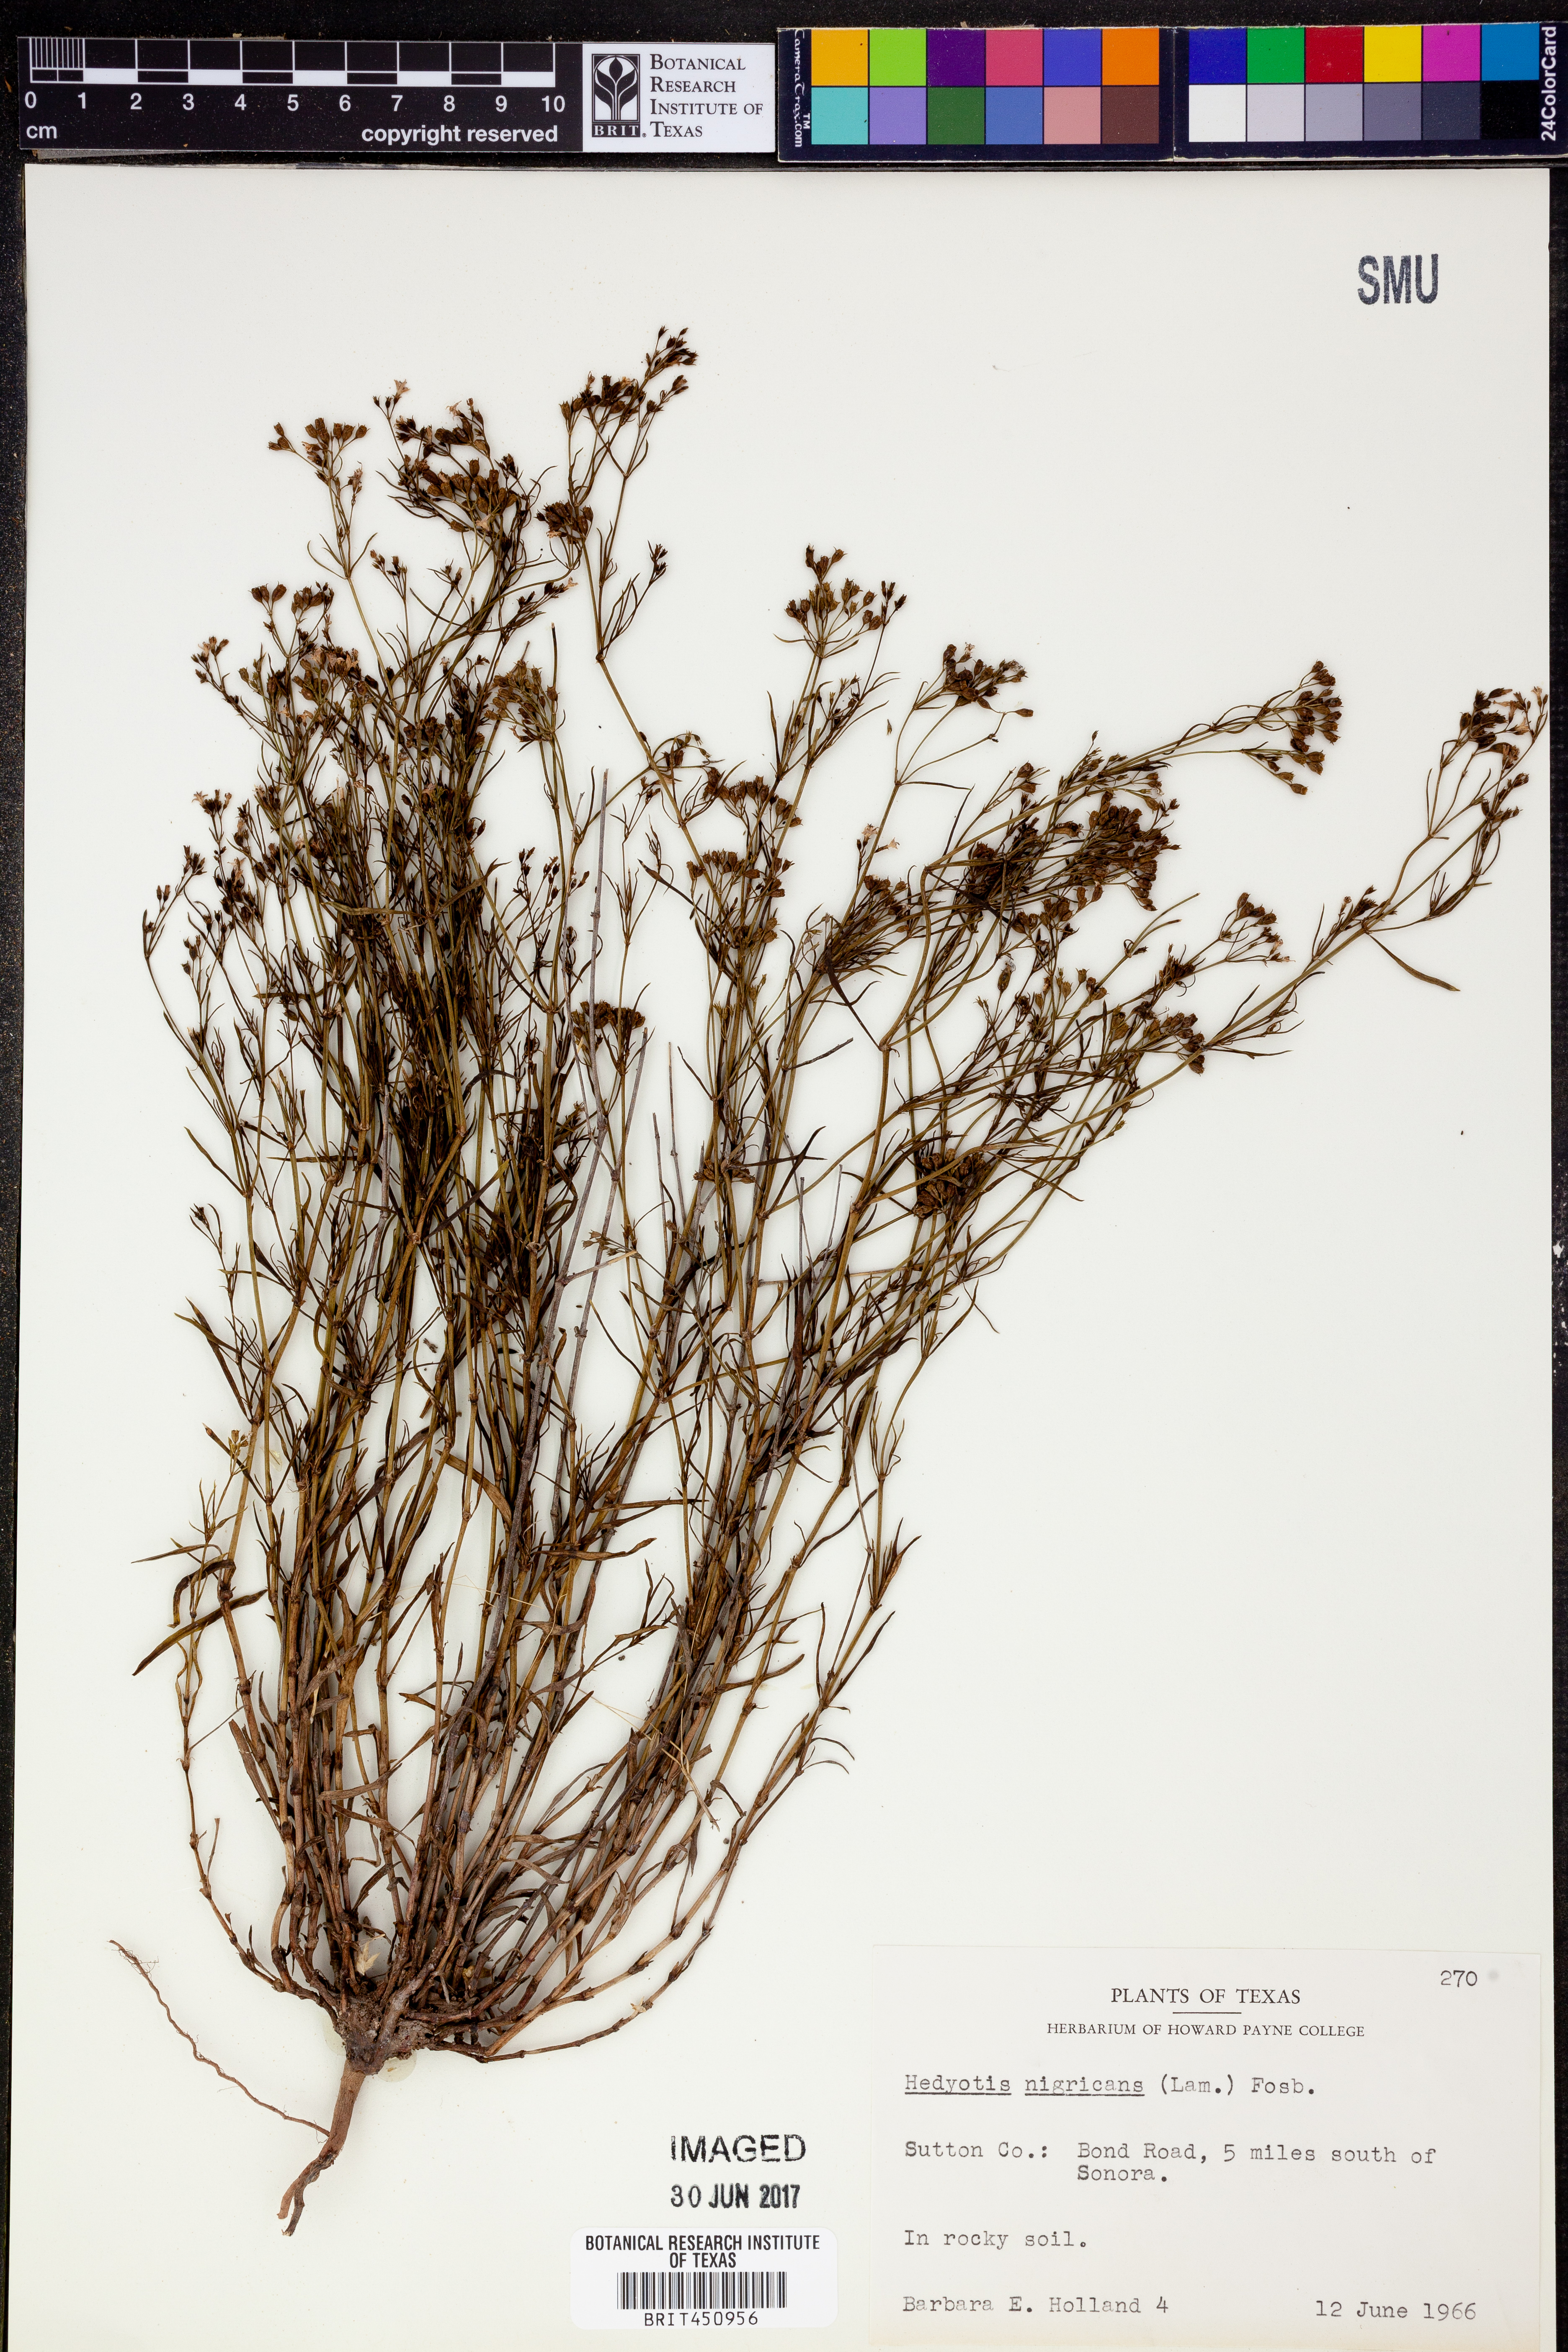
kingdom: Plantae
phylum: Tracheophyta
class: Magnoliopsida
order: Gentianales
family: Rubiaceae
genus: Stenaria
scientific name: Stenaria nigricans
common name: Diamondflowers
